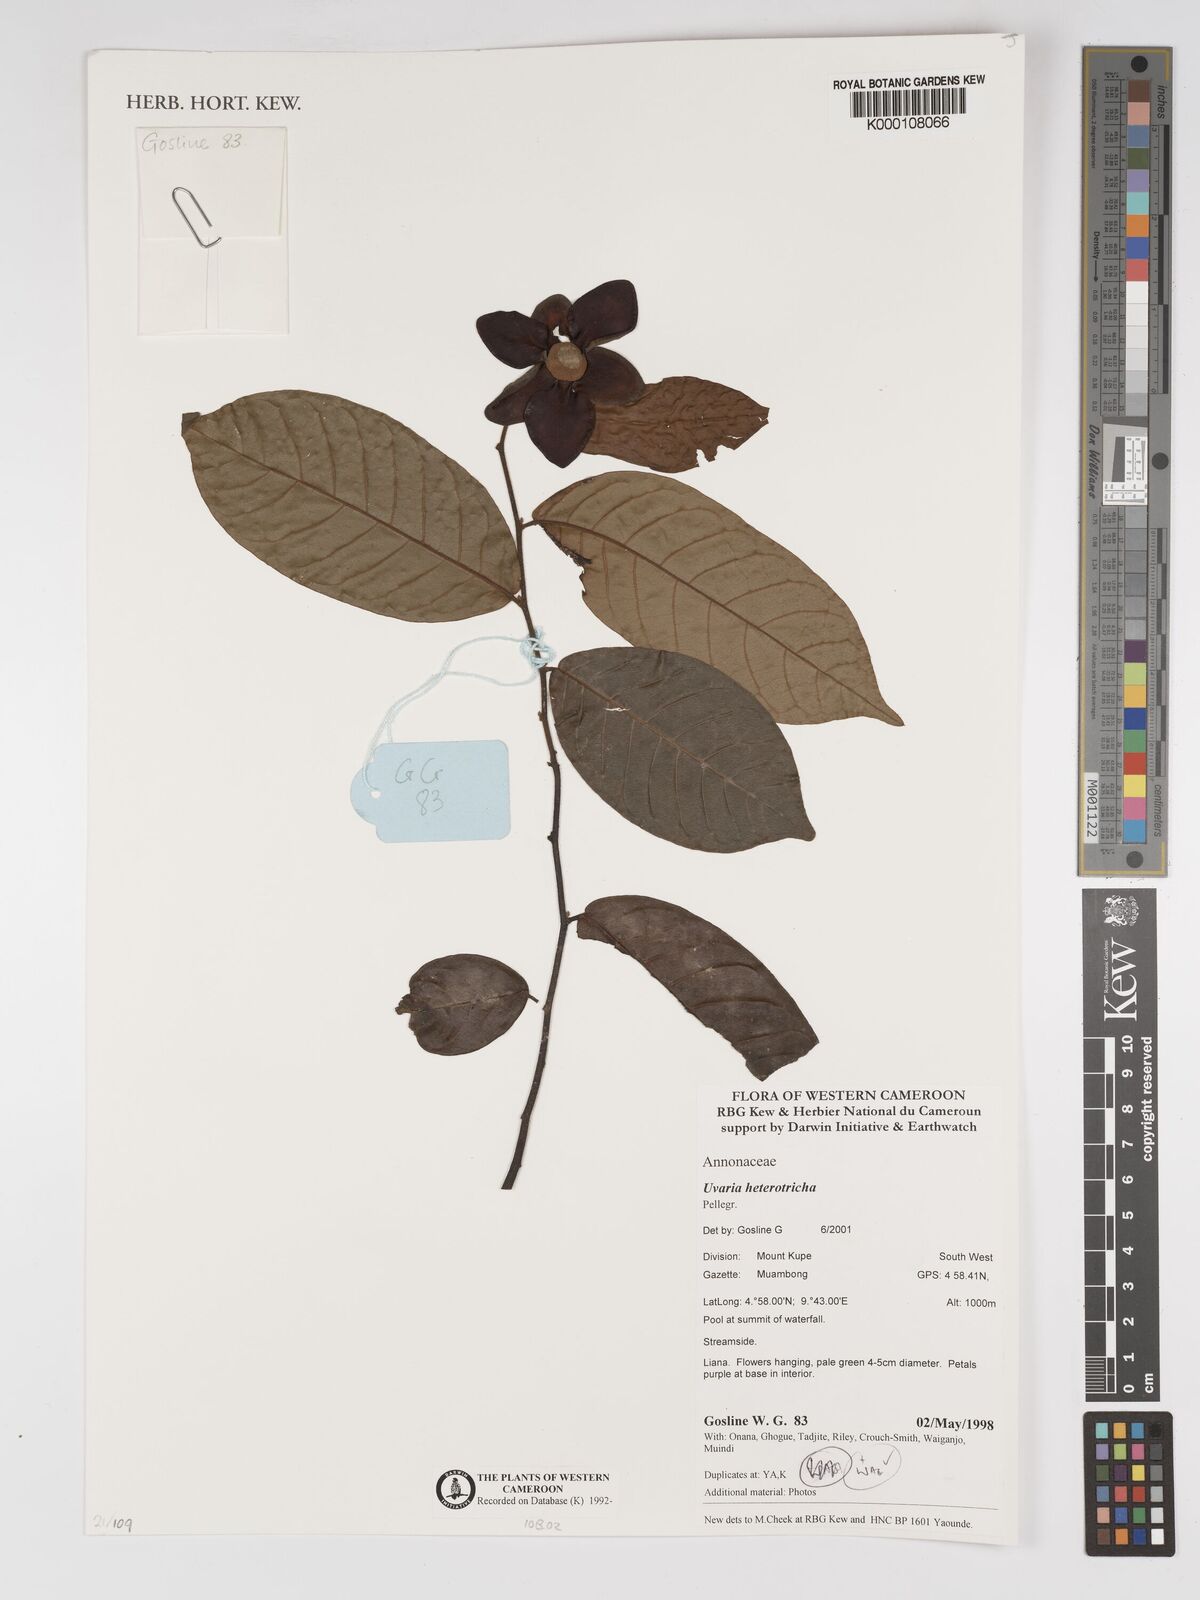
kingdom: Plantae
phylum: Tracheophyta
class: Magnoliopsida
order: Magnoliales
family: Annonaceae
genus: Uvaria
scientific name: Uvaria heterotricha
